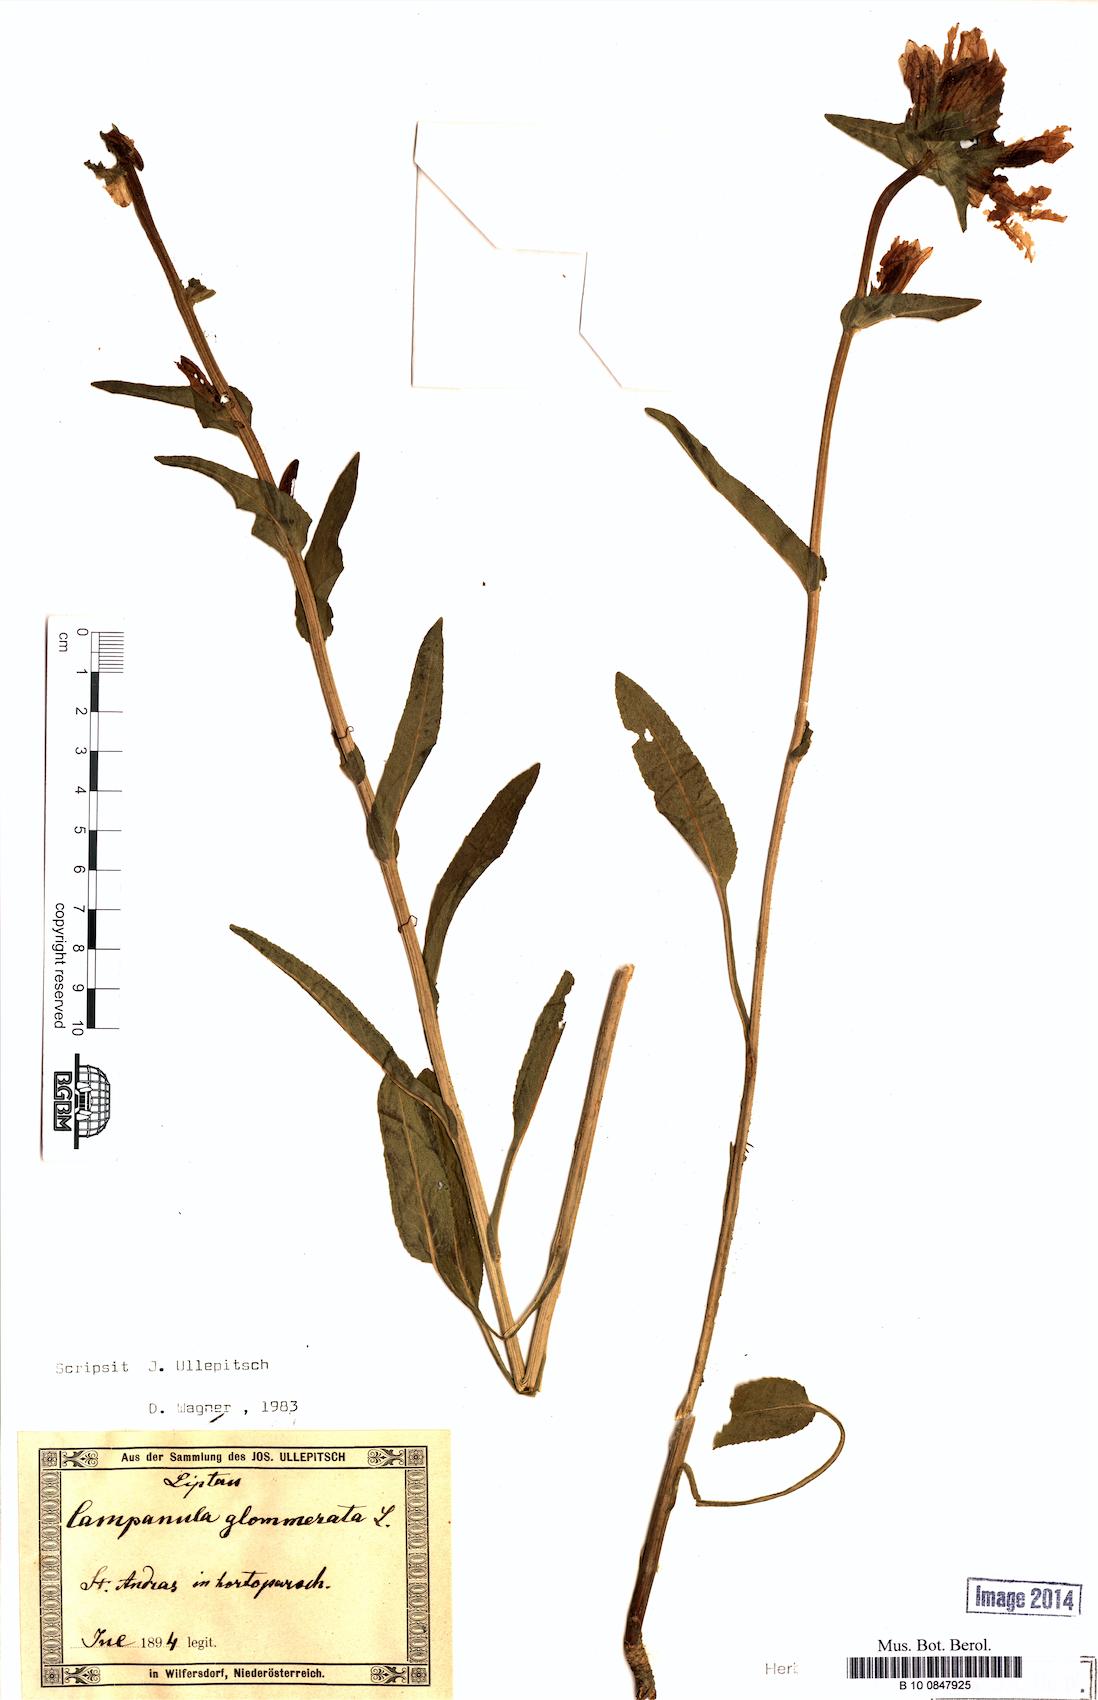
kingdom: Plantae
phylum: Tracheophyta
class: Magnoliopsida
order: Asterales
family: Campanulaceae
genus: Campanula
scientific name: Campanula glomerata
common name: Clustered bellflower
